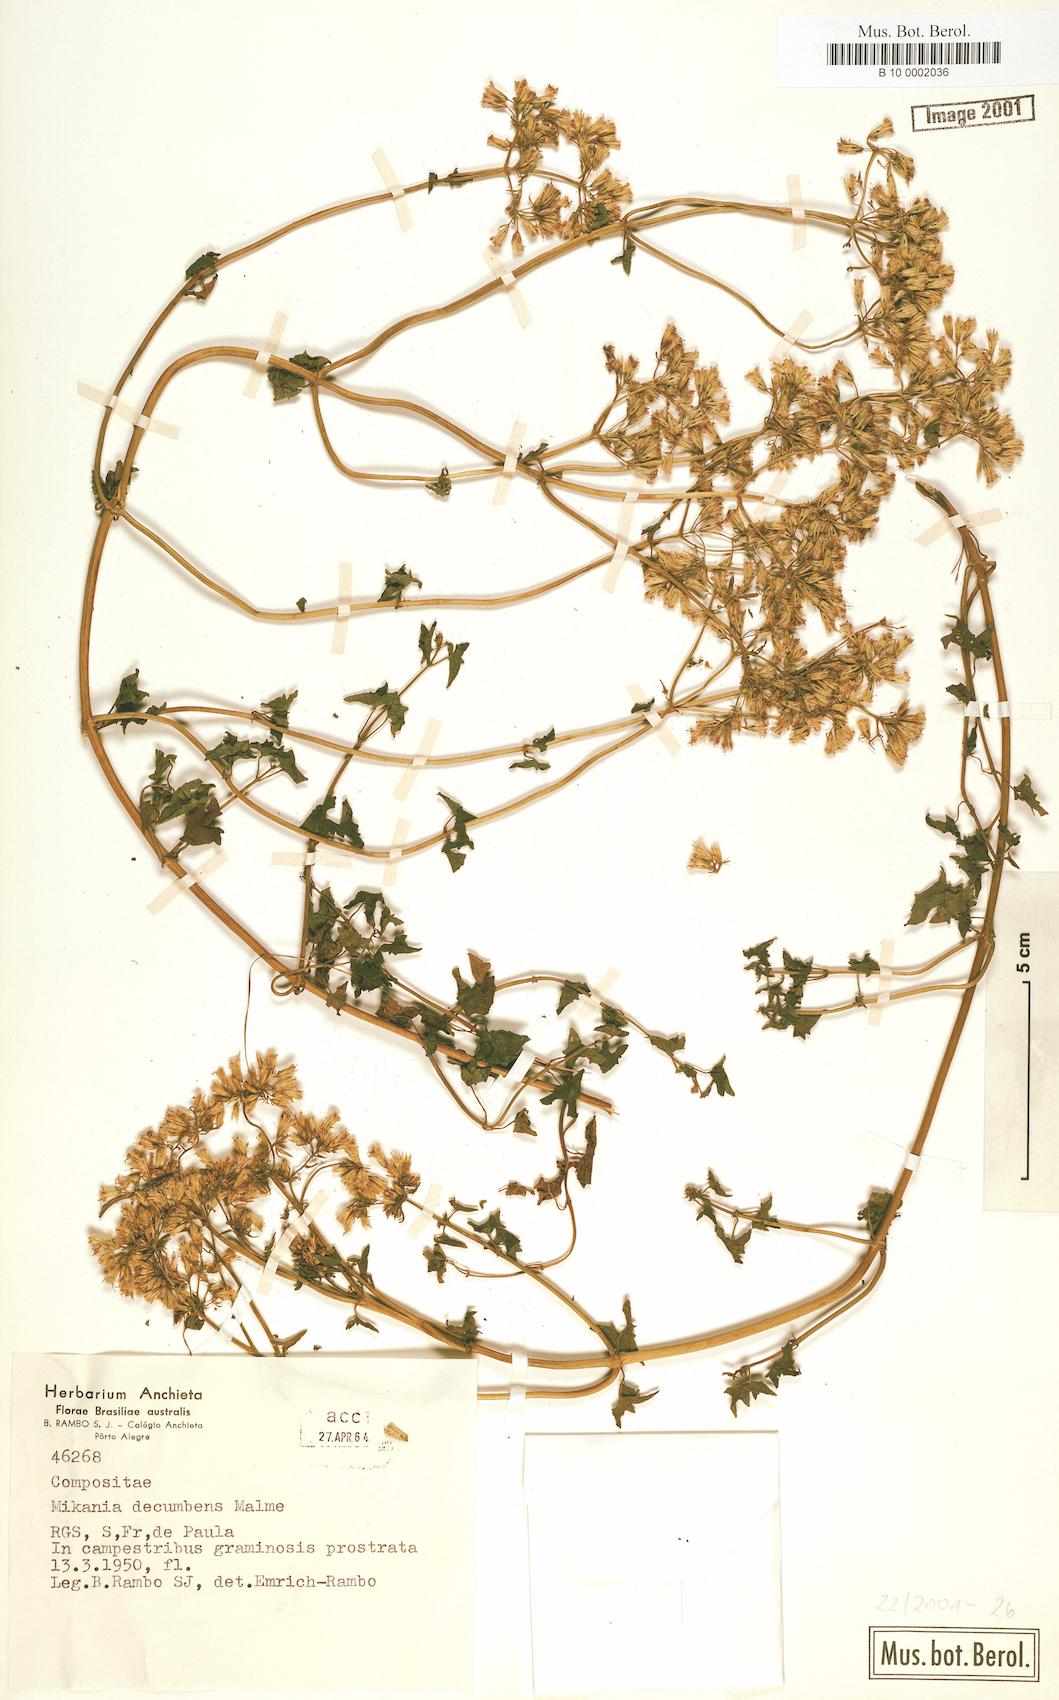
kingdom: Plantae
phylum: Tracheophyta
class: Magnoliopsida
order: Asterales
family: Asteraceae
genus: Mikania
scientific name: Mikania decumbens
